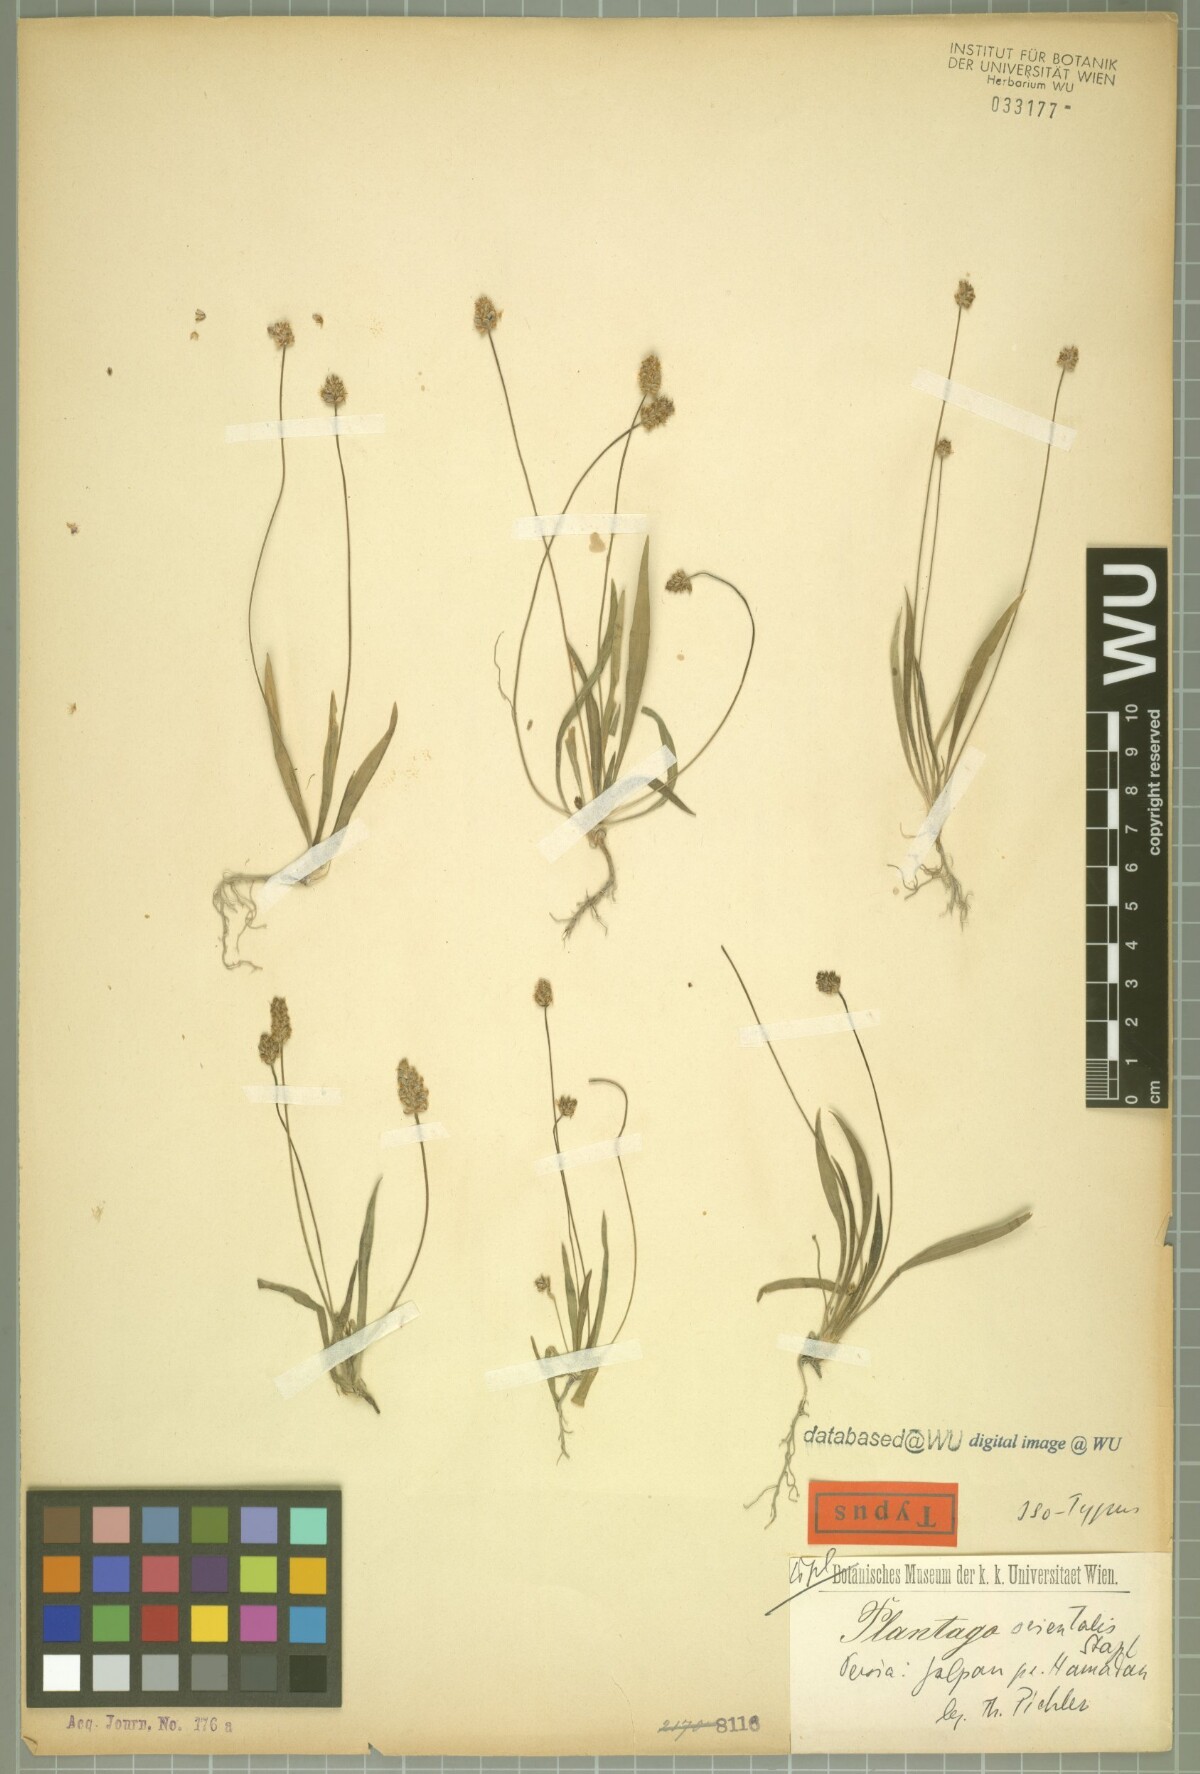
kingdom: Plantae
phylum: Tracheophyta
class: Magnoliopsida
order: Lamiales
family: Plantaginaceae
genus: Plantago
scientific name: Plantago lanceolata
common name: Ribwort plantain
